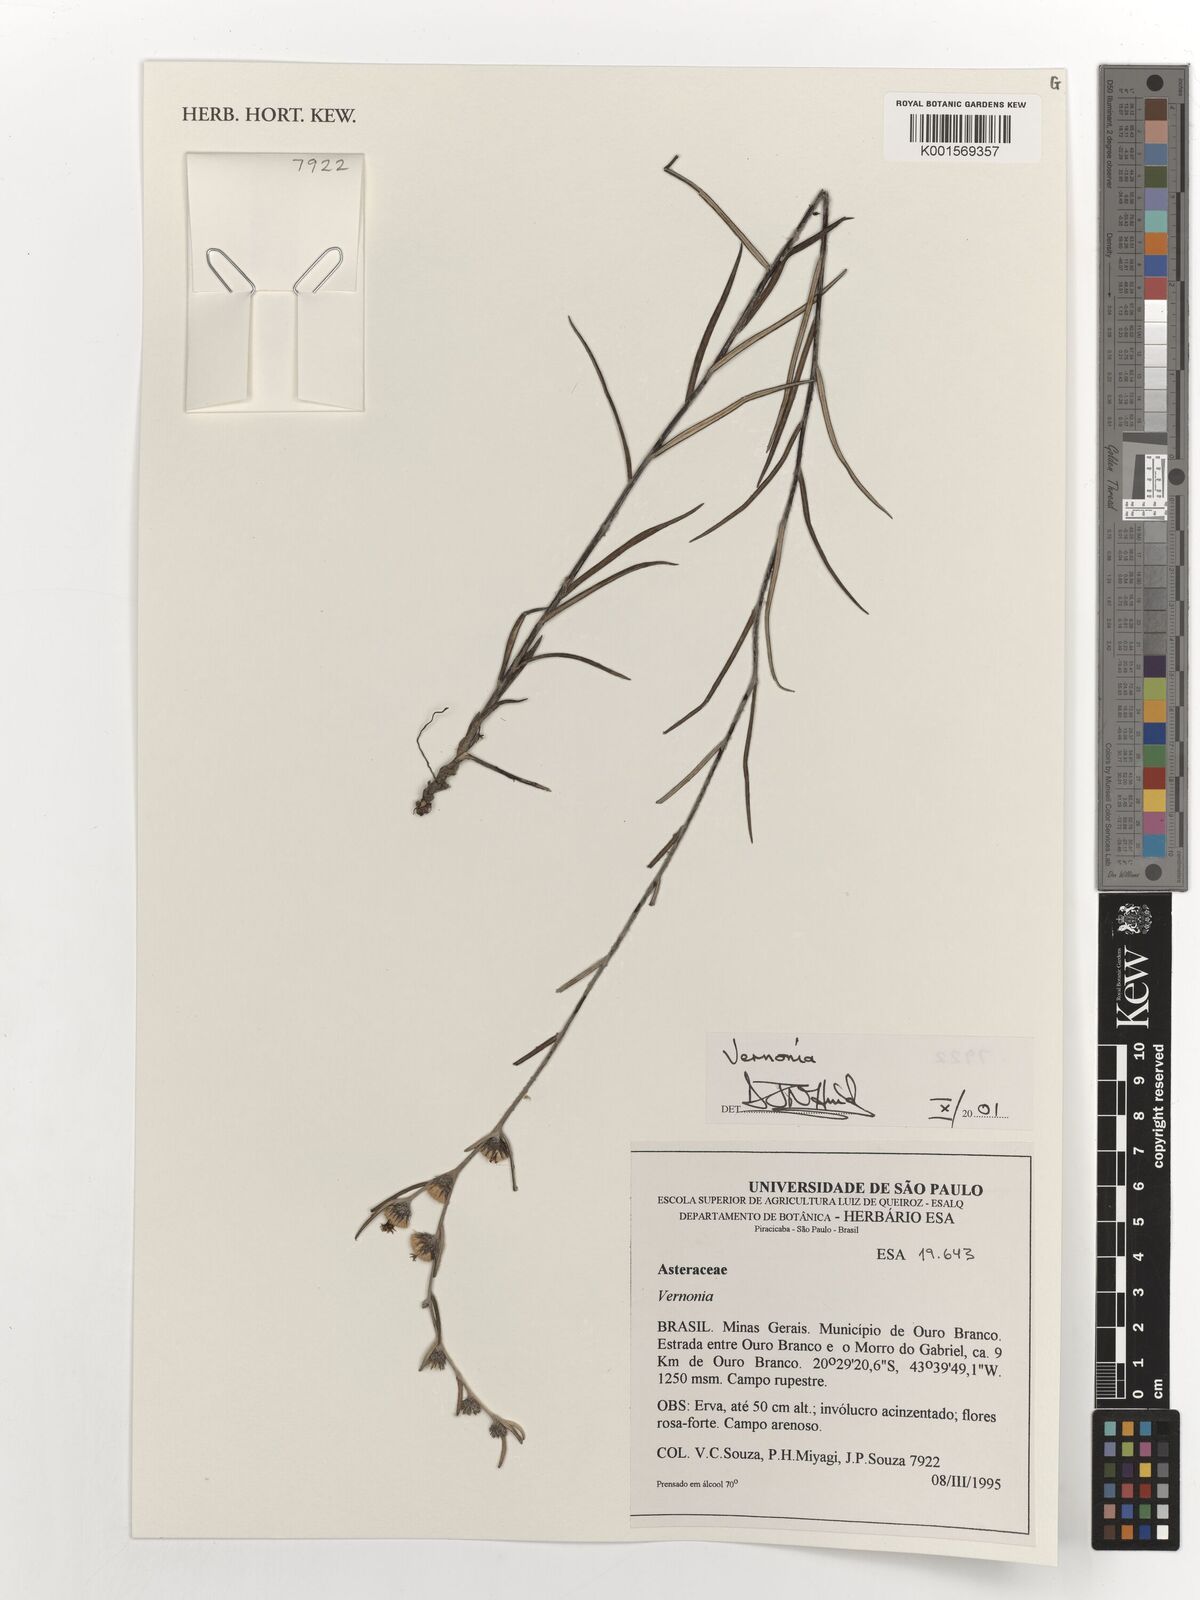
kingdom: Plantae
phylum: Tracheophyta
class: Magnoliopsida
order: Asterales
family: Asteraceae
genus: Vernonia
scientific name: Vernonia
